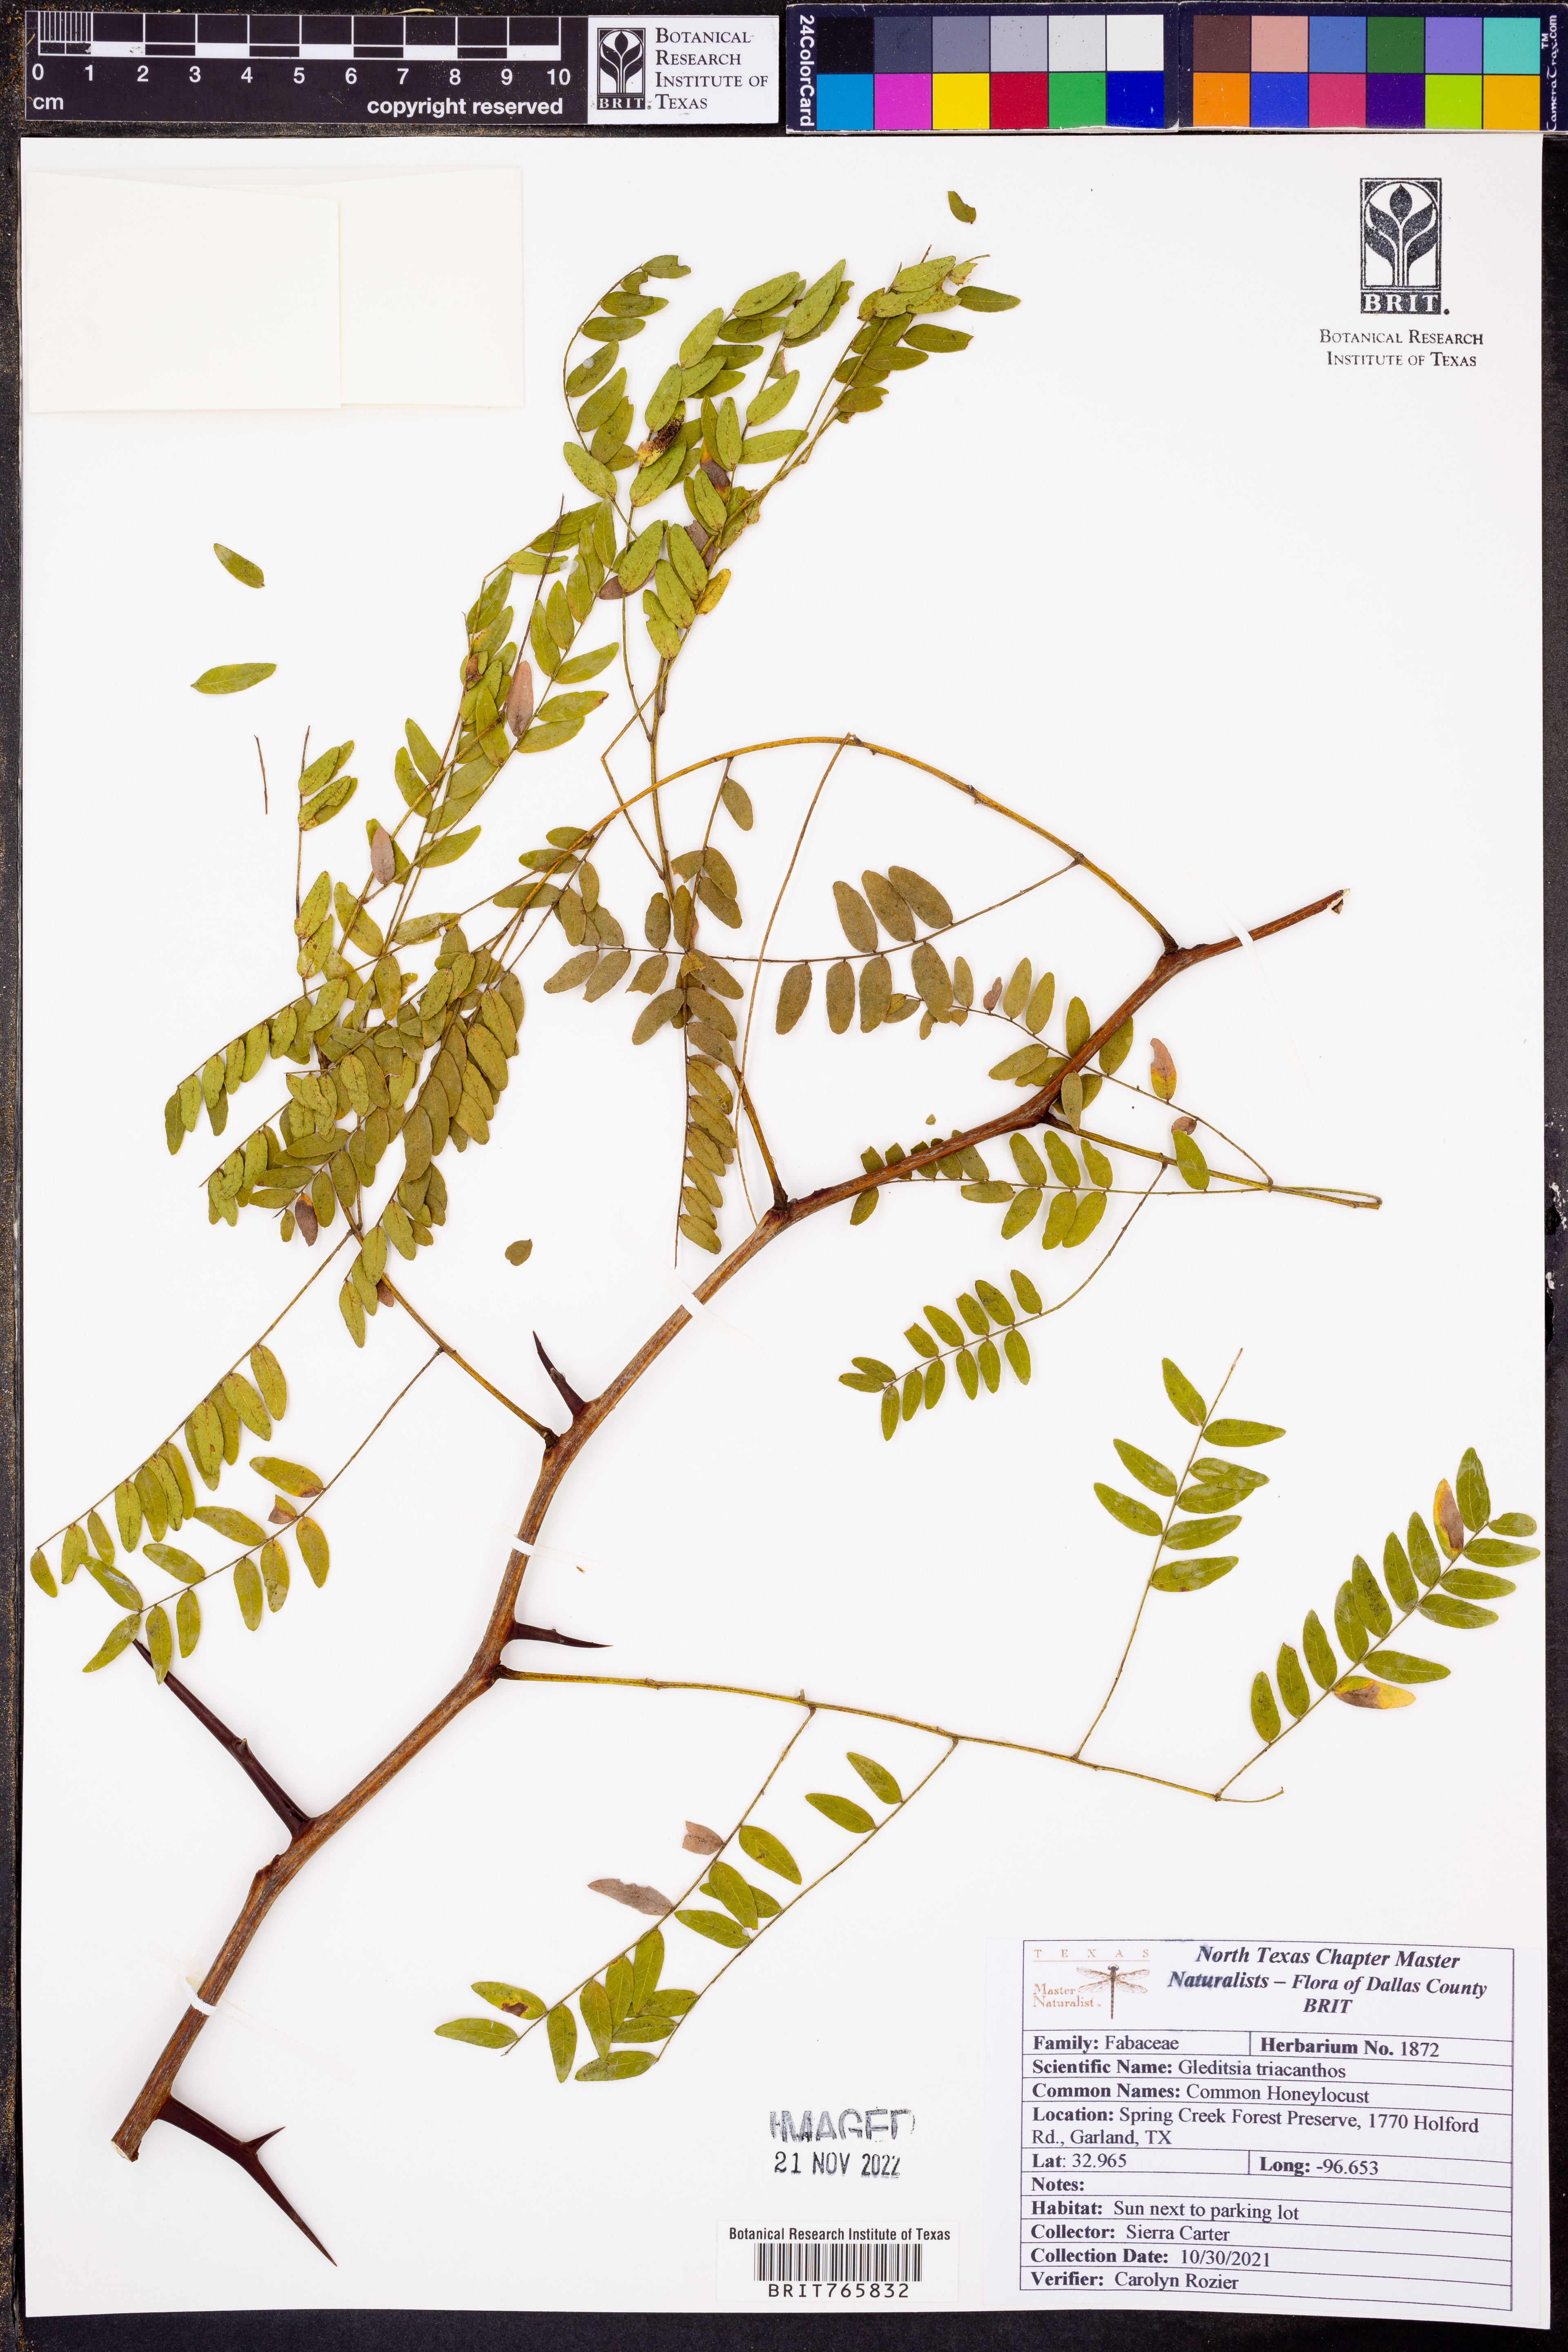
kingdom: Plantae
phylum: Tracheophyta
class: Magnoliopsida
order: Fabales
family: Fabaceae
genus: Gleditsia
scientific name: Gleditsia triacanthos
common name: Common honeylocust
